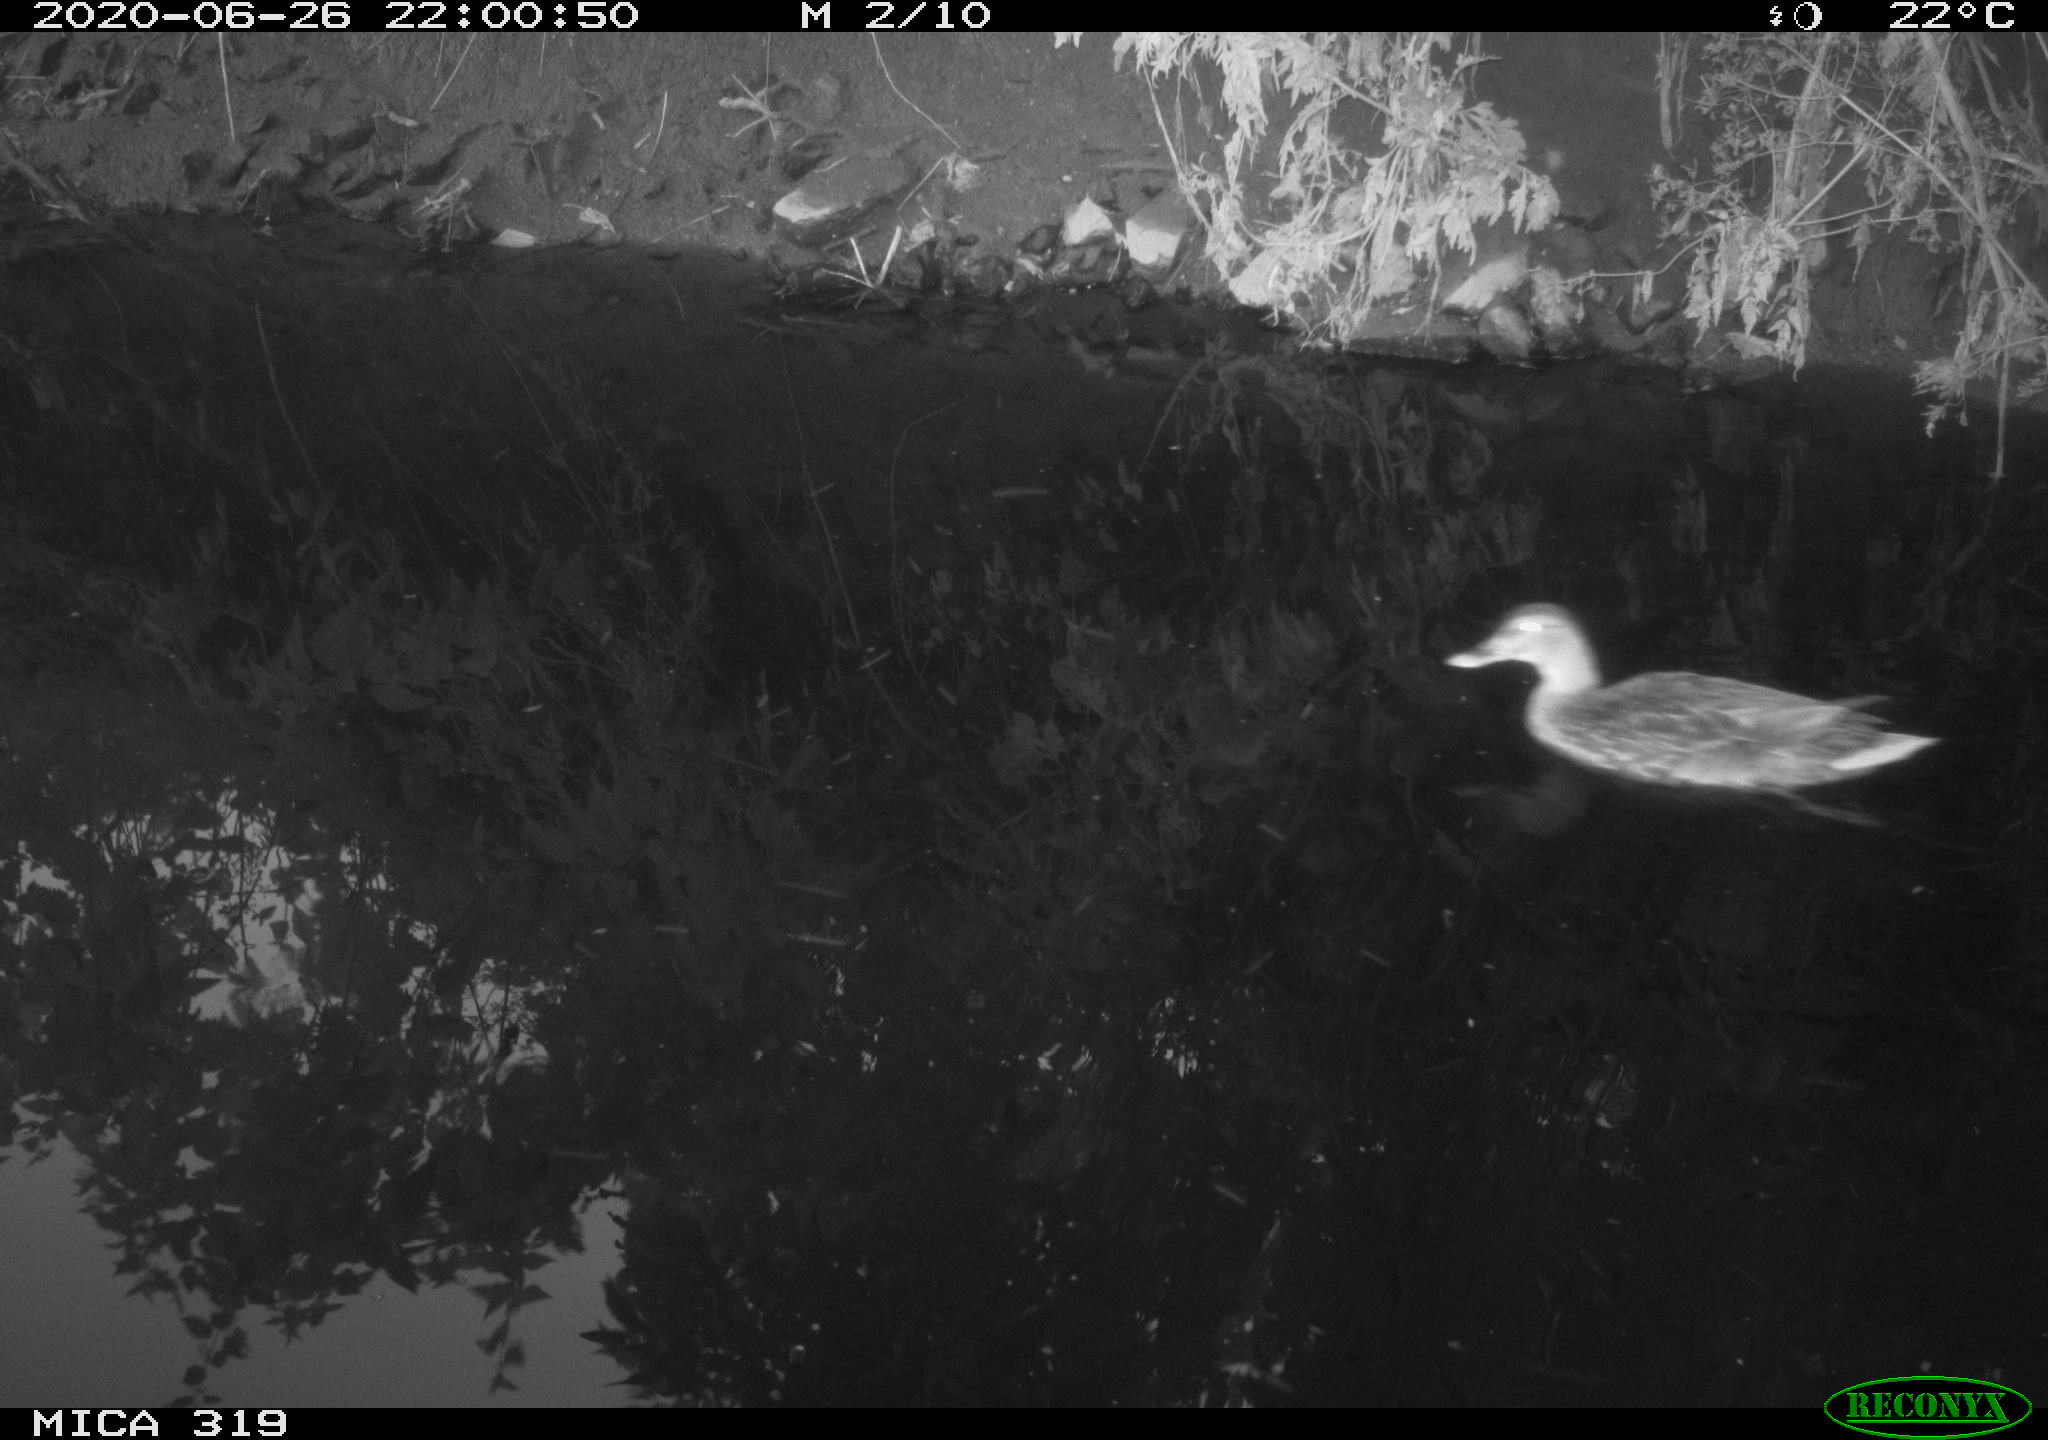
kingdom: Animalia
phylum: Chordata
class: Aves
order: Anseriformes
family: Anatidae
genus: Anas
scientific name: Anas platyrhynchos
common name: Mallard
